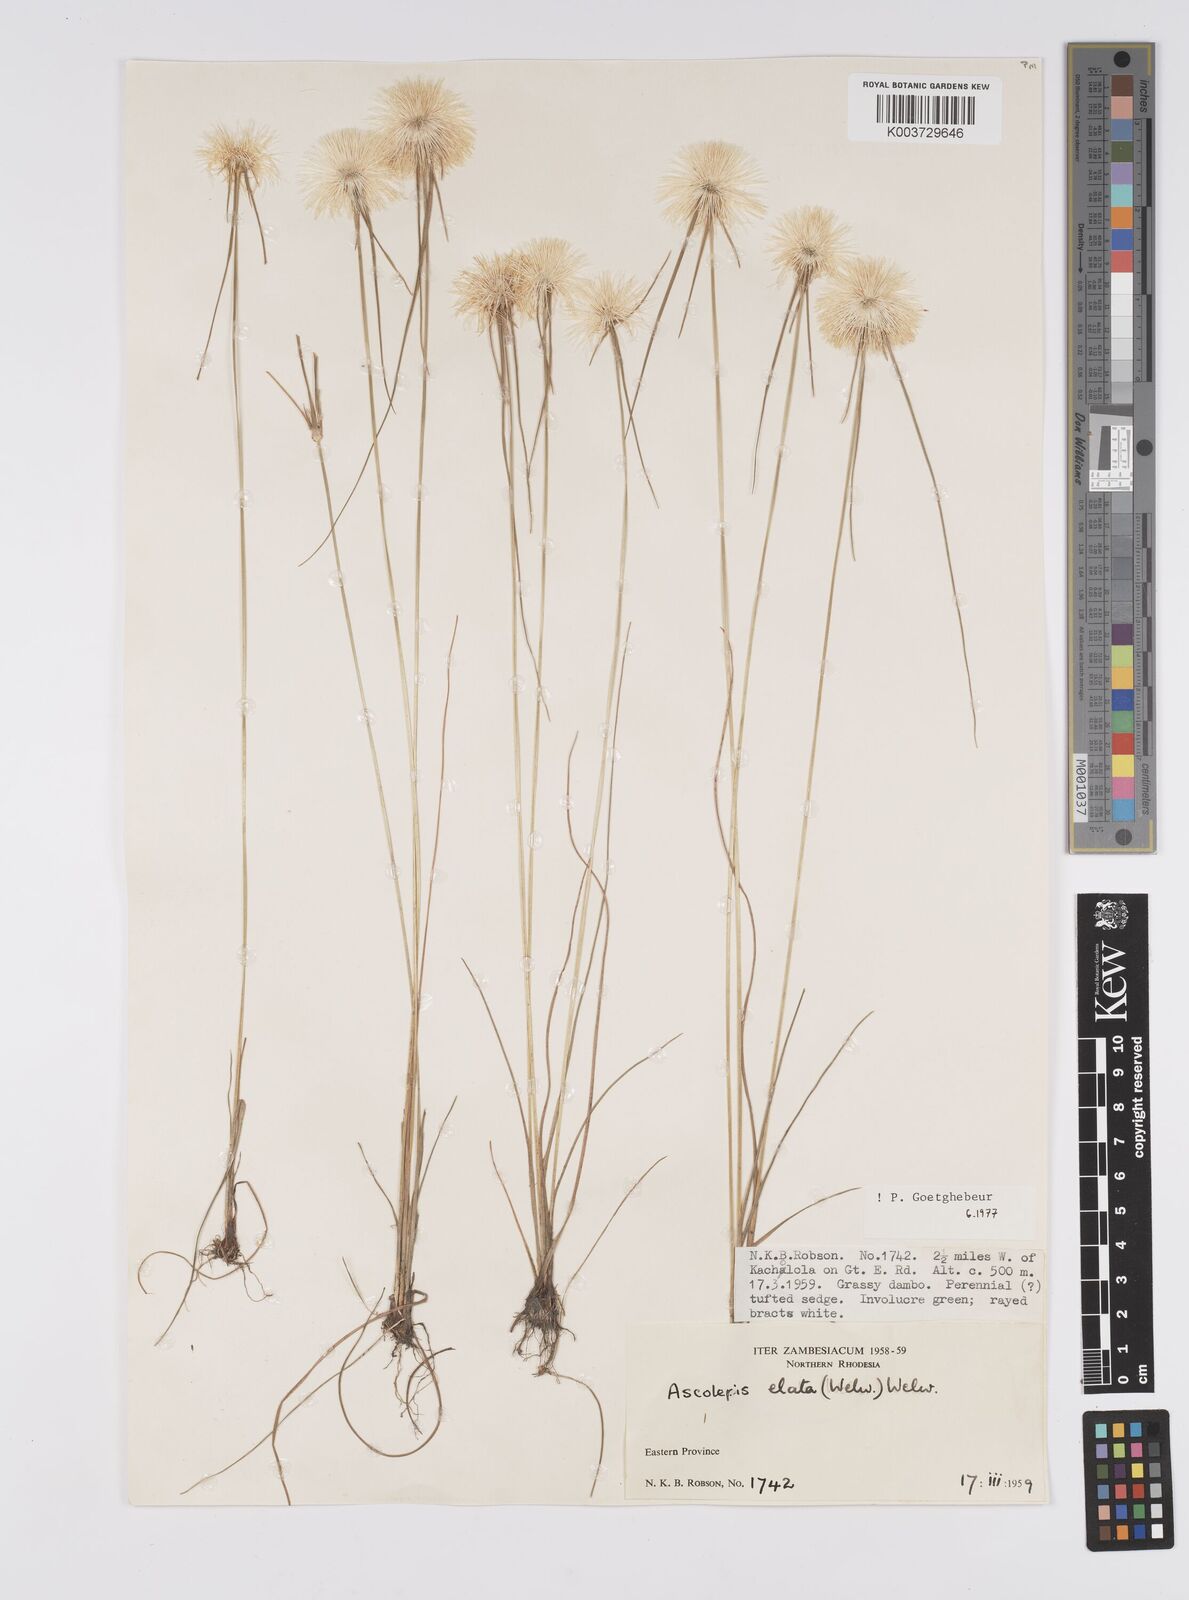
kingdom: Plantae
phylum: Tracheophyta
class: Liliopsida
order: Poales
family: Cyperaceae
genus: Cyperus
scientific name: Cyperus
